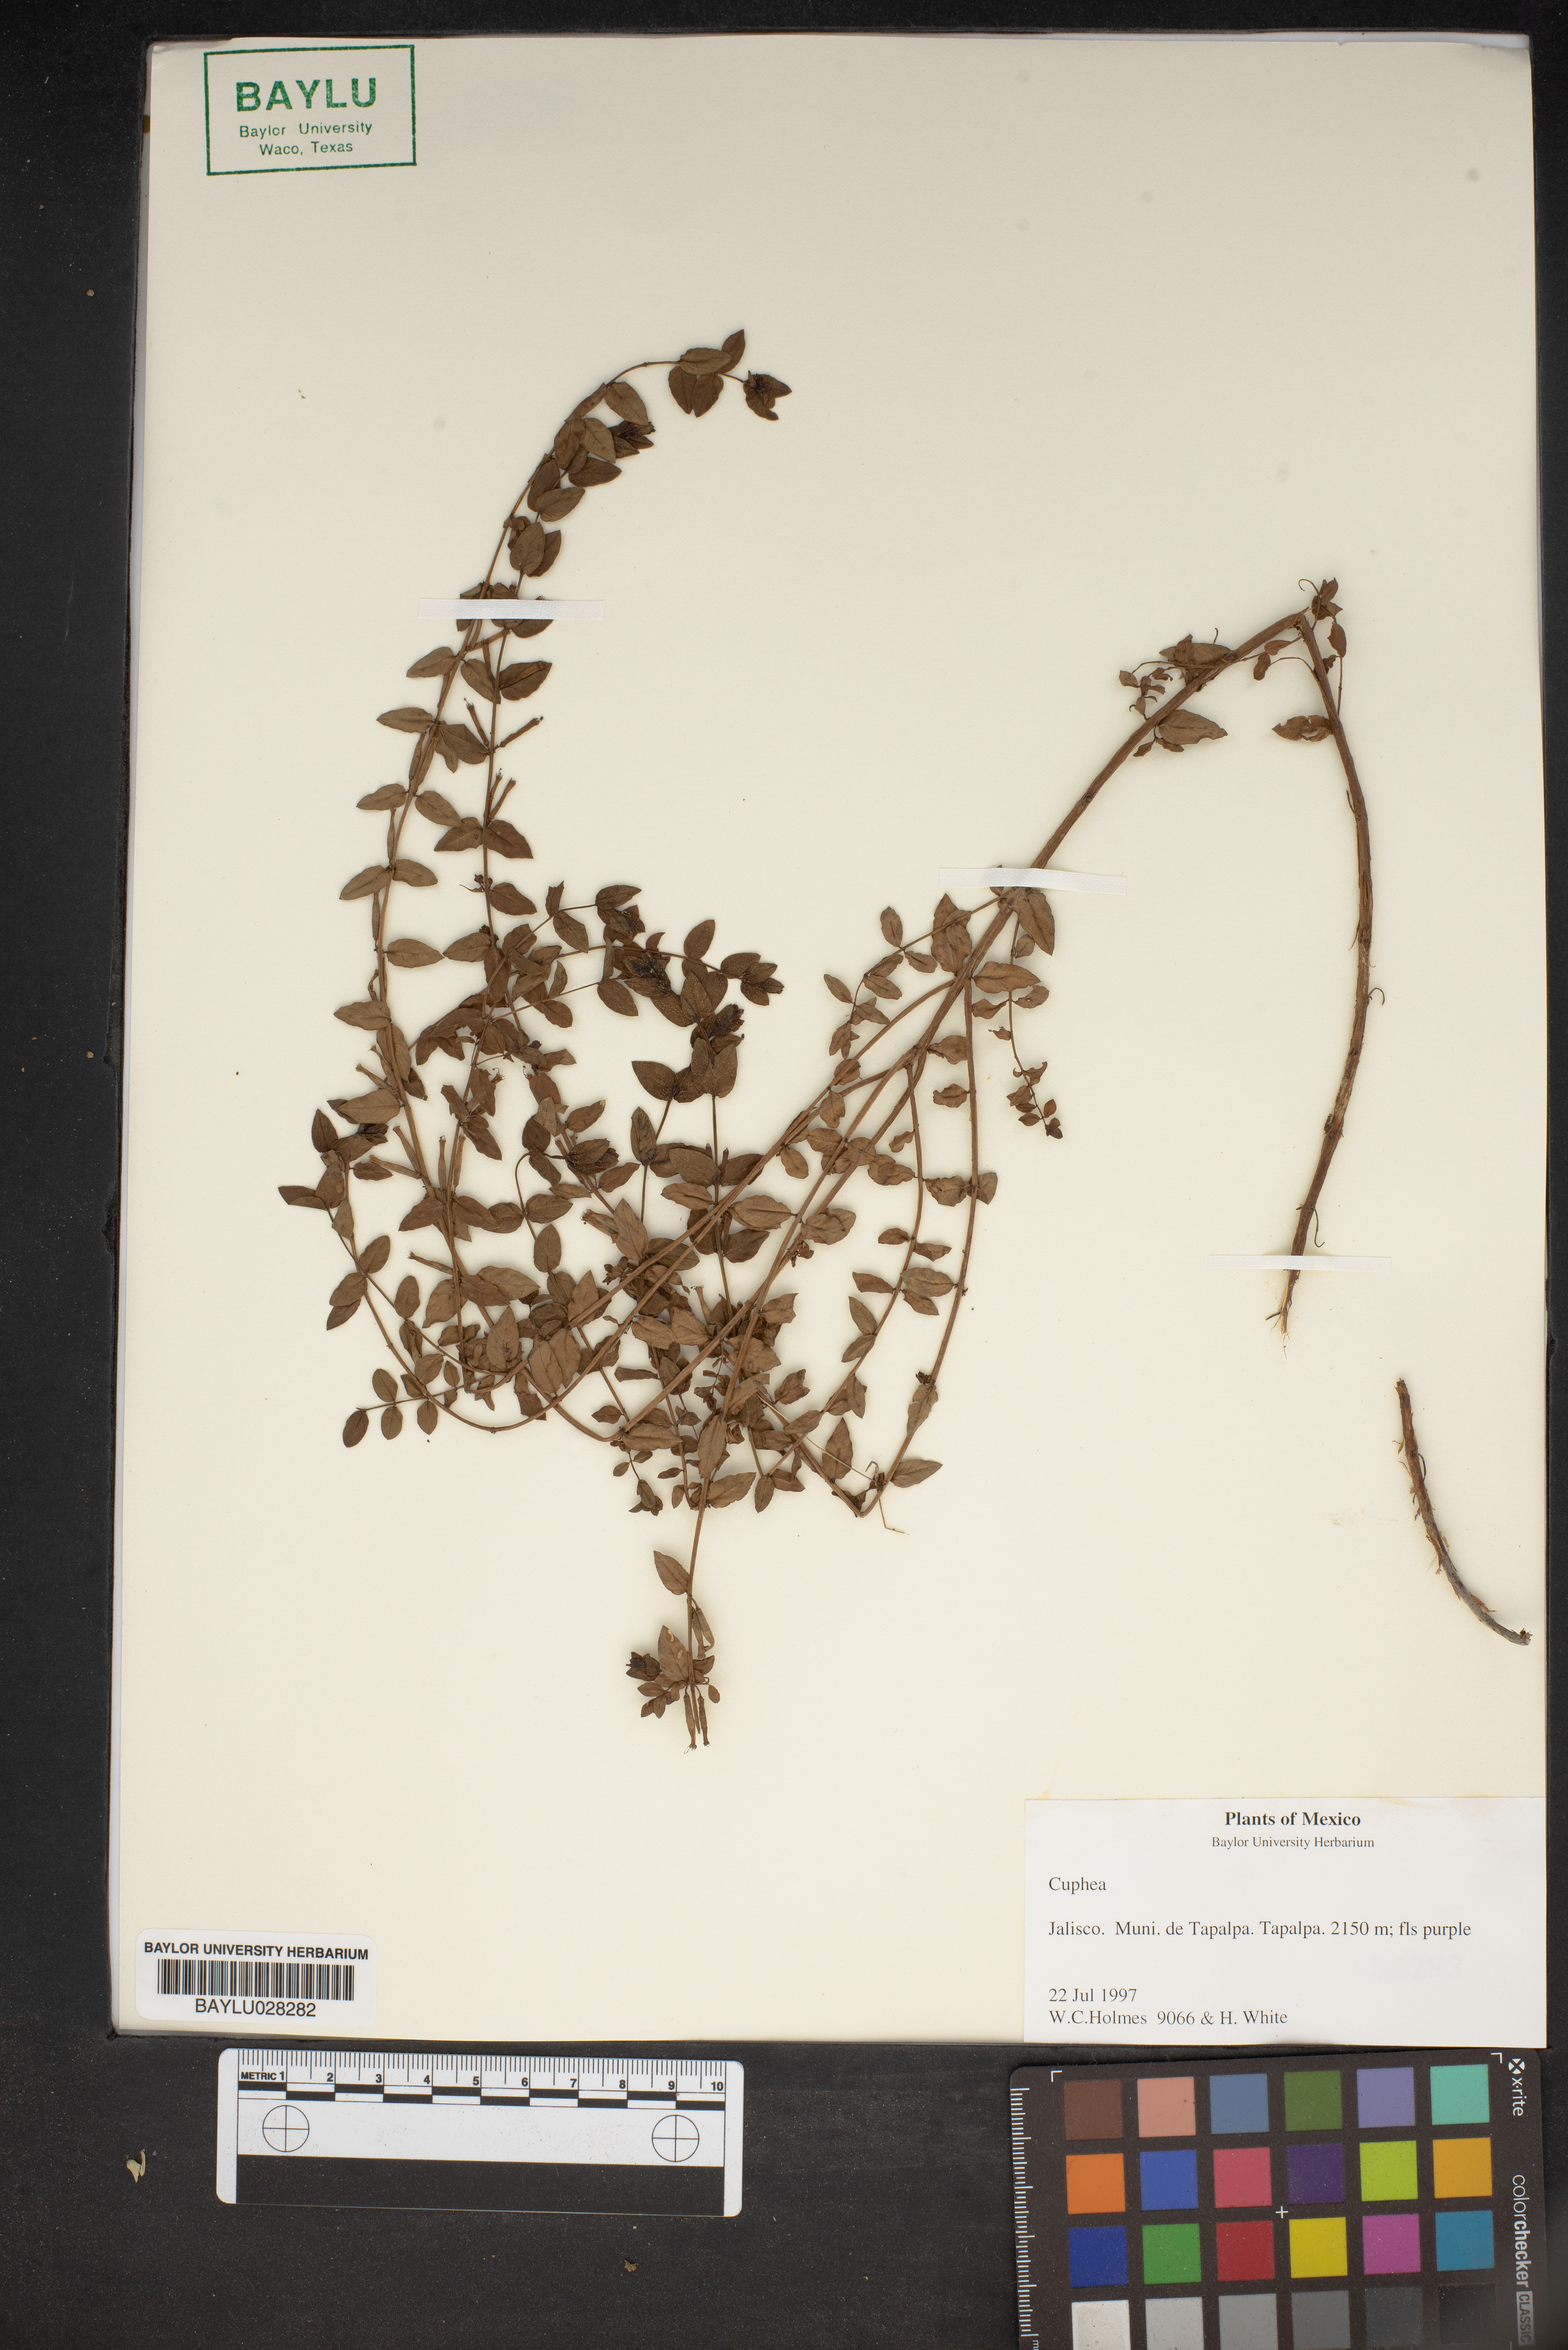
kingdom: Plantae
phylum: Tracheophyta
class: Magnoliopsida
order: Myrtales
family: Lythraceae
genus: Cuphea
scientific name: Cuphea
